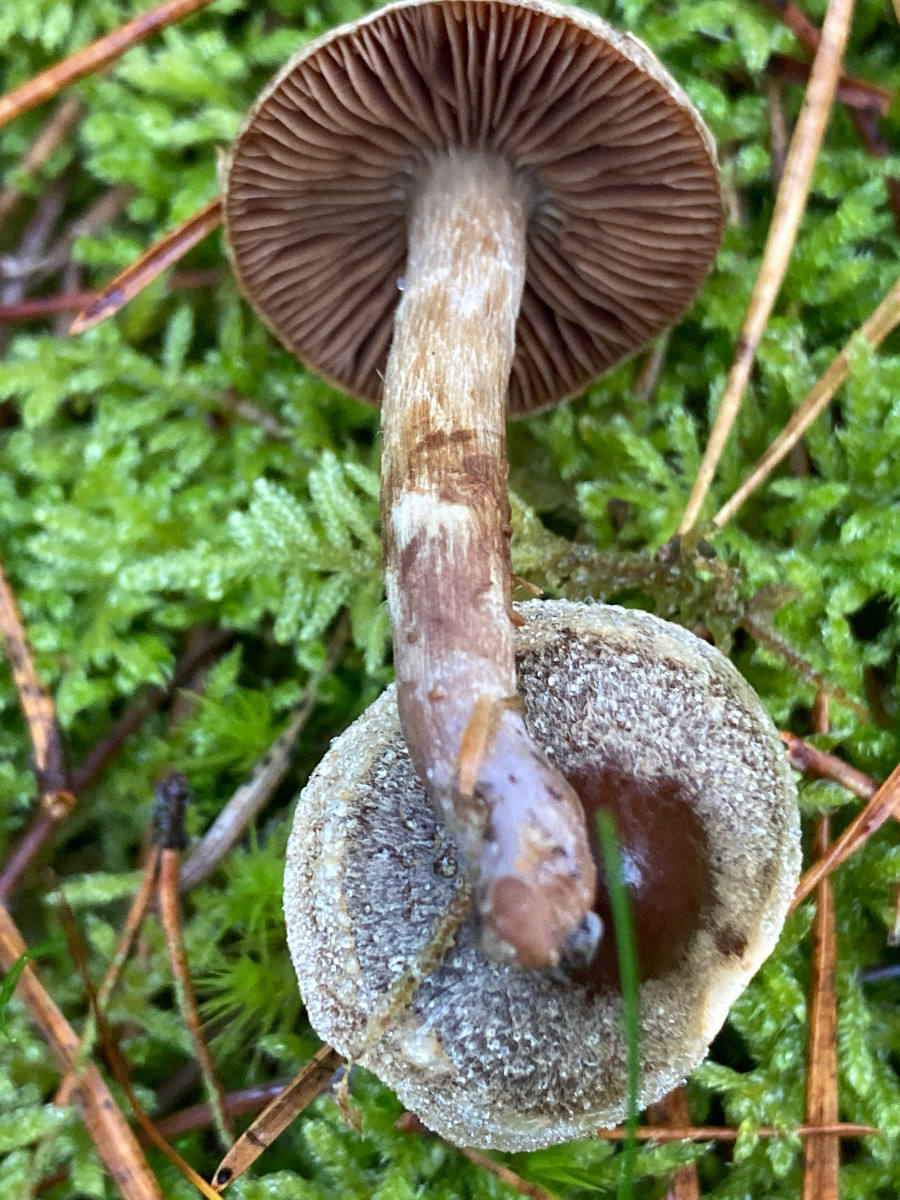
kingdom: Fungi
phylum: Basidiomycota
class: Agaricomycetes
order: Agaricales
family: Cortinariaceae
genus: Cortinarius
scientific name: Cortinarius
